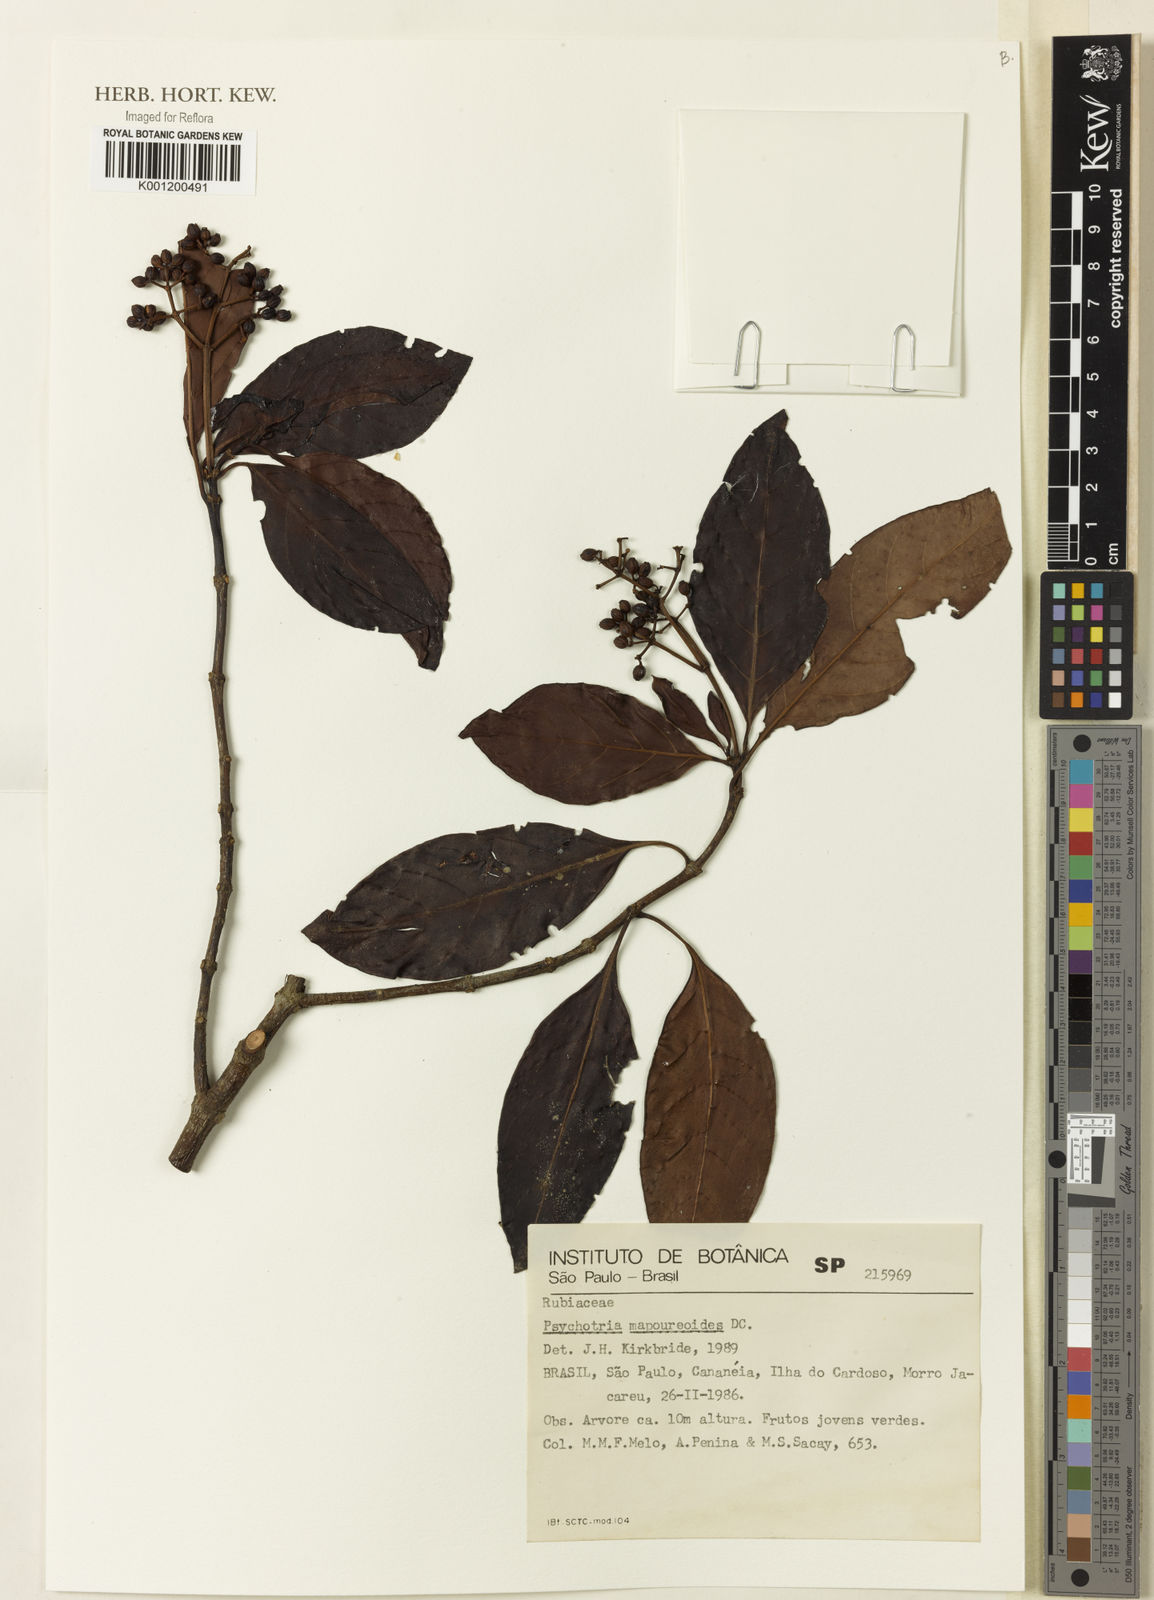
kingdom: Plantae
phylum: Tracheophyta
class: Magnoliopsida
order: Gentianales
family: Rubiaceae
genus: Psychotria
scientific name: Psychotria carthagenensis
